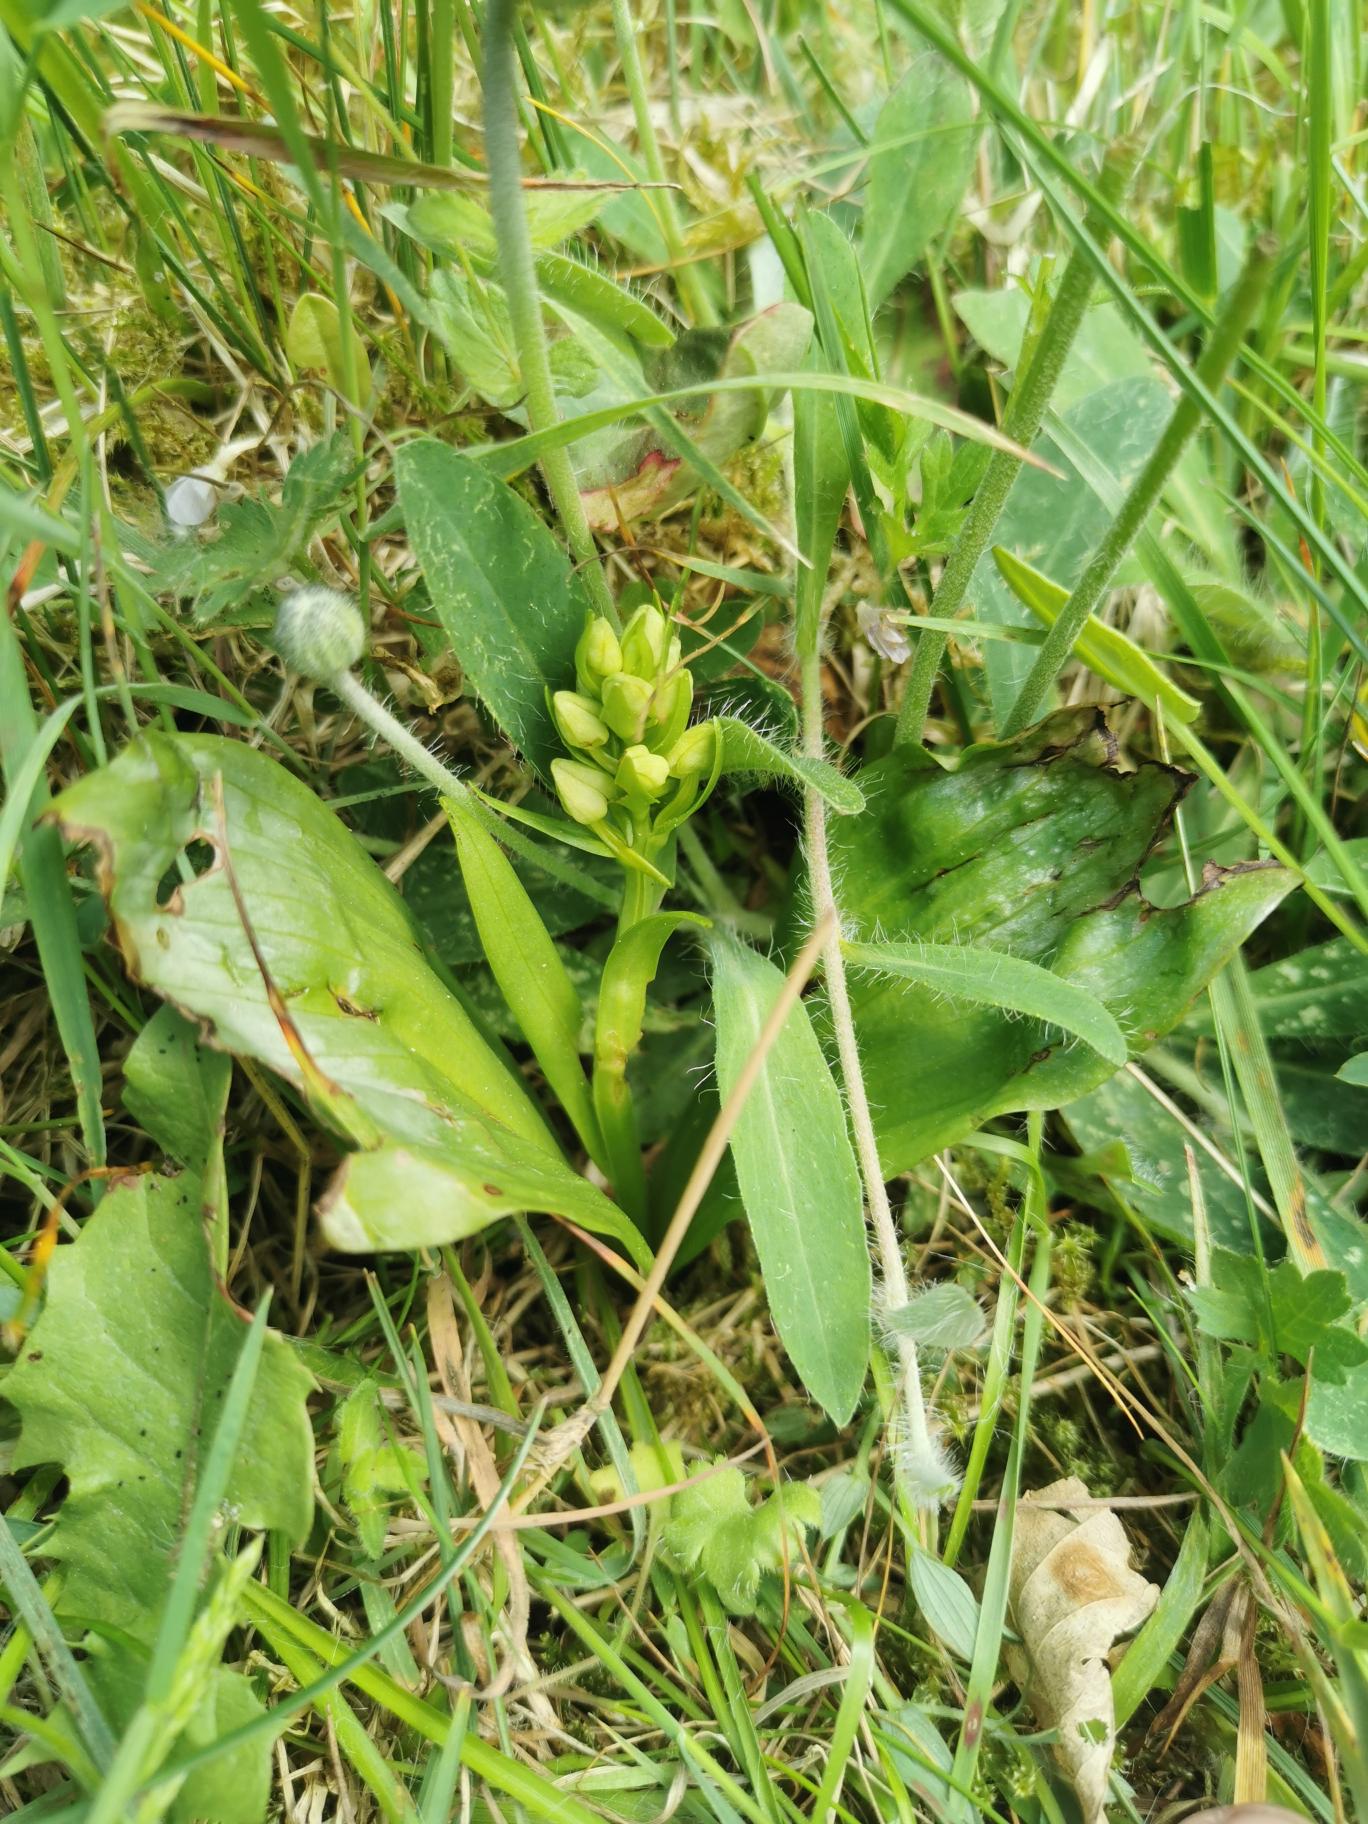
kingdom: Plantae
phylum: Tracheophyta
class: Liliopsida
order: Asparagales
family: Orchidaceae
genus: Platanthera
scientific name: Platanthera
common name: Gøgeliljeslægten
